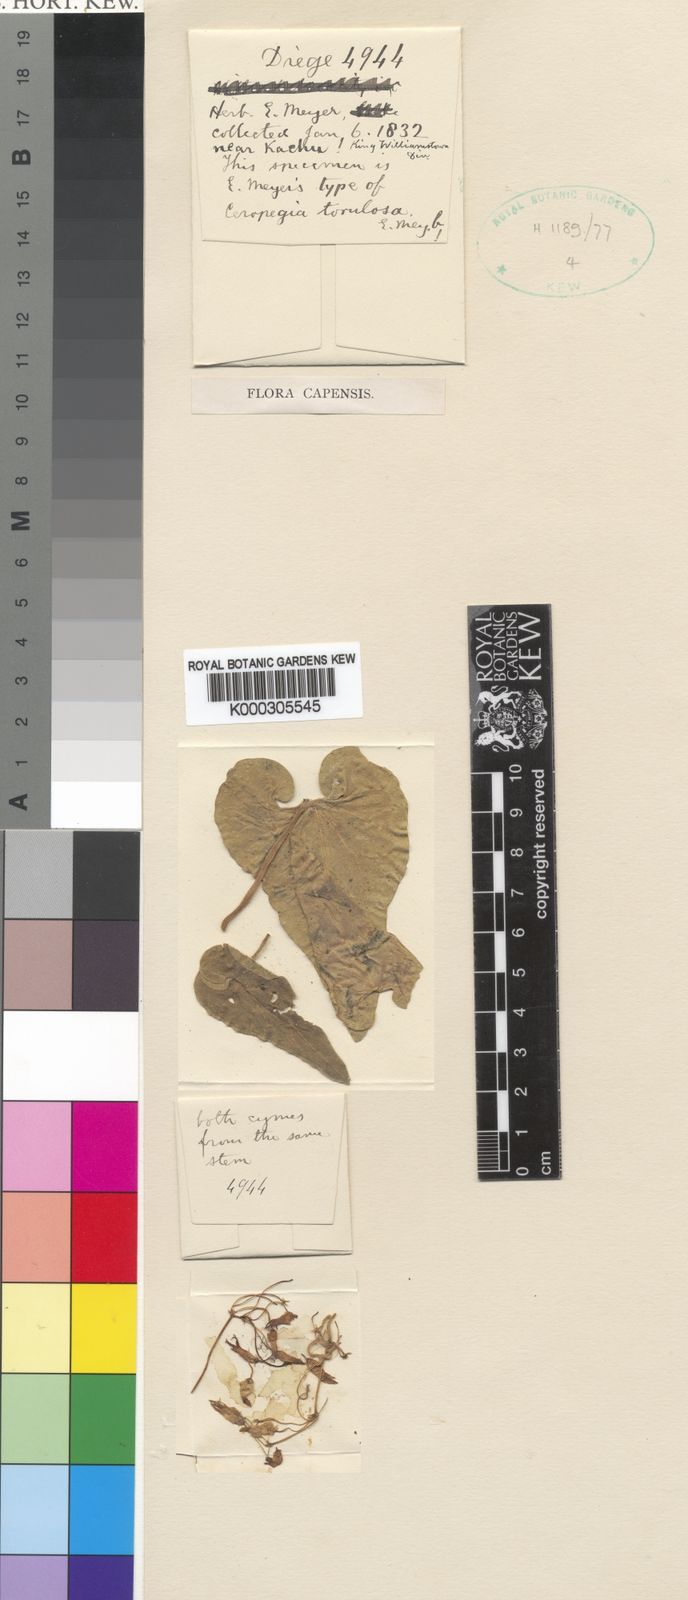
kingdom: Plantae
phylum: Tracheophyta
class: Magnoliopsida
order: Gentianales
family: Apocynaceae
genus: Riocreuxia
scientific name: Riocreuxia torulosa
